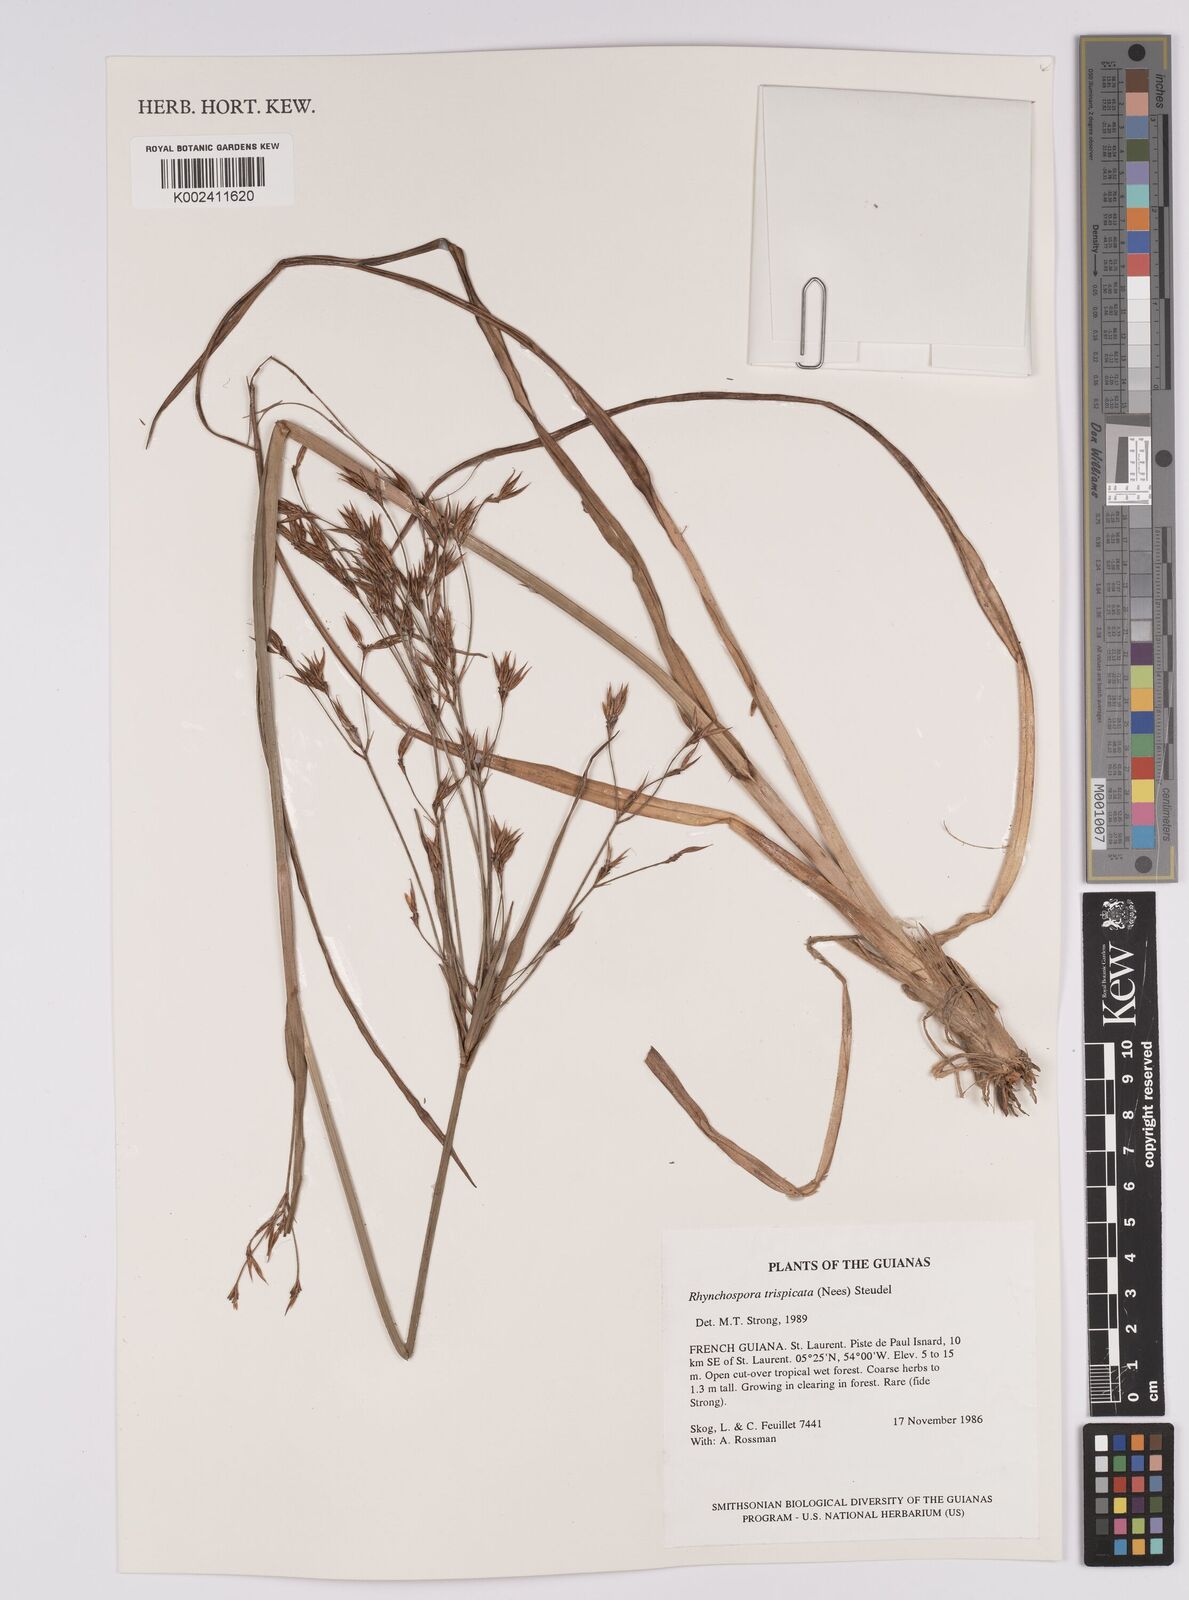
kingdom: Plantae
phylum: Tracheophyta
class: Liliopsida
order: Poales
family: Cyperaceae
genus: Rhynchospora
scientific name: Rhynchospora trispicata
